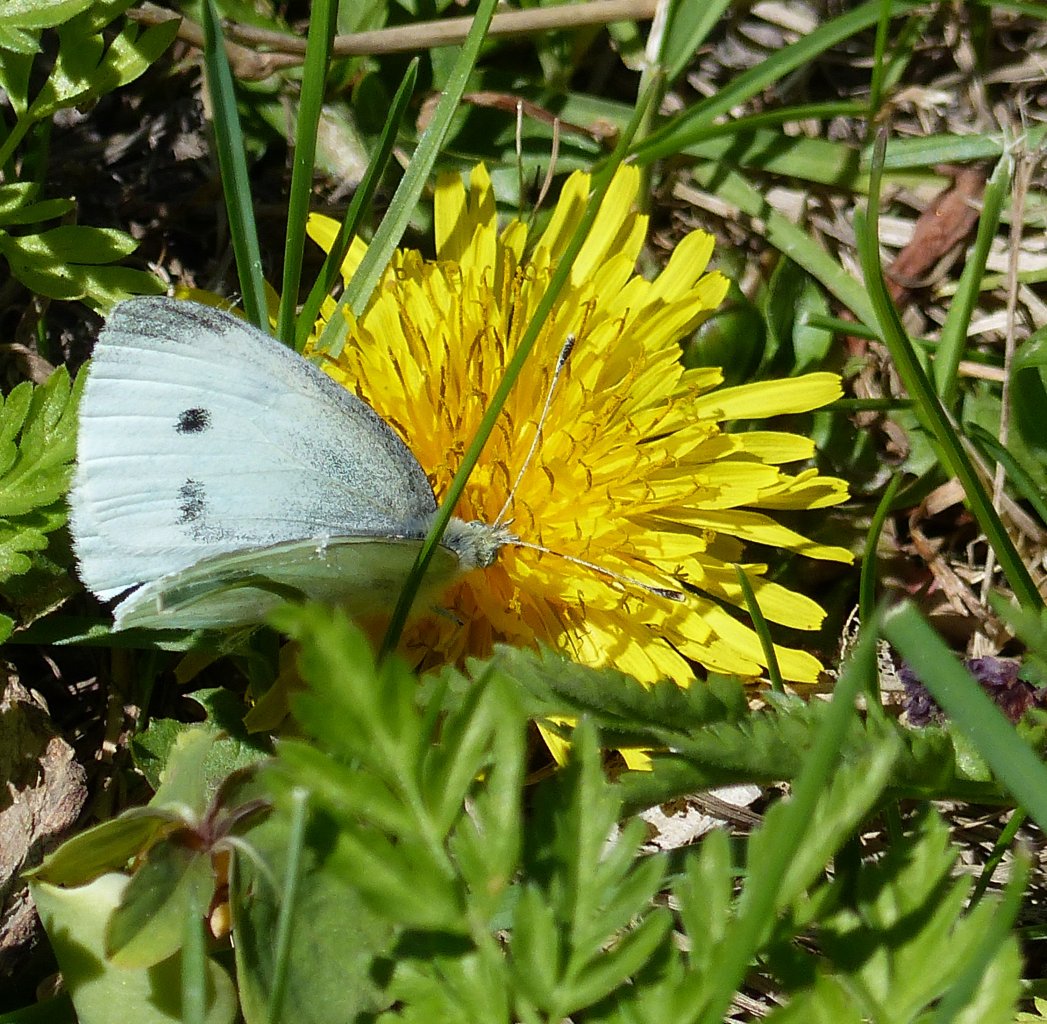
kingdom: Animalia
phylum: Arthropoda
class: Insecta
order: Lepidoptera
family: Pieridae
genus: Pieris
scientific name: Pieris rapae
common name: Cabbage White
